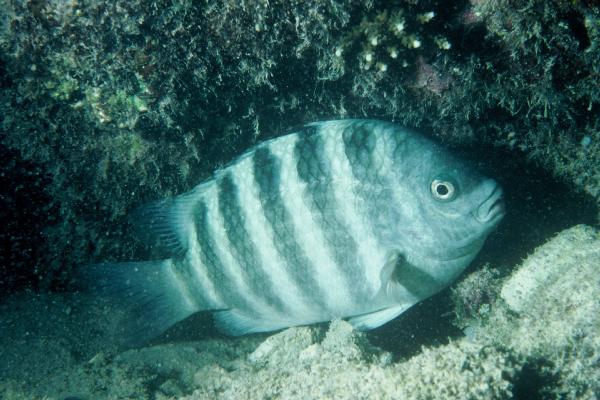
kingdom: Animalia
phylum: Chordata
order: Perciformes
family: Pomacentridae
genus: Abudefduf
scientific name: Abudefduf septemfasciatus
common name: Banded sergeant
